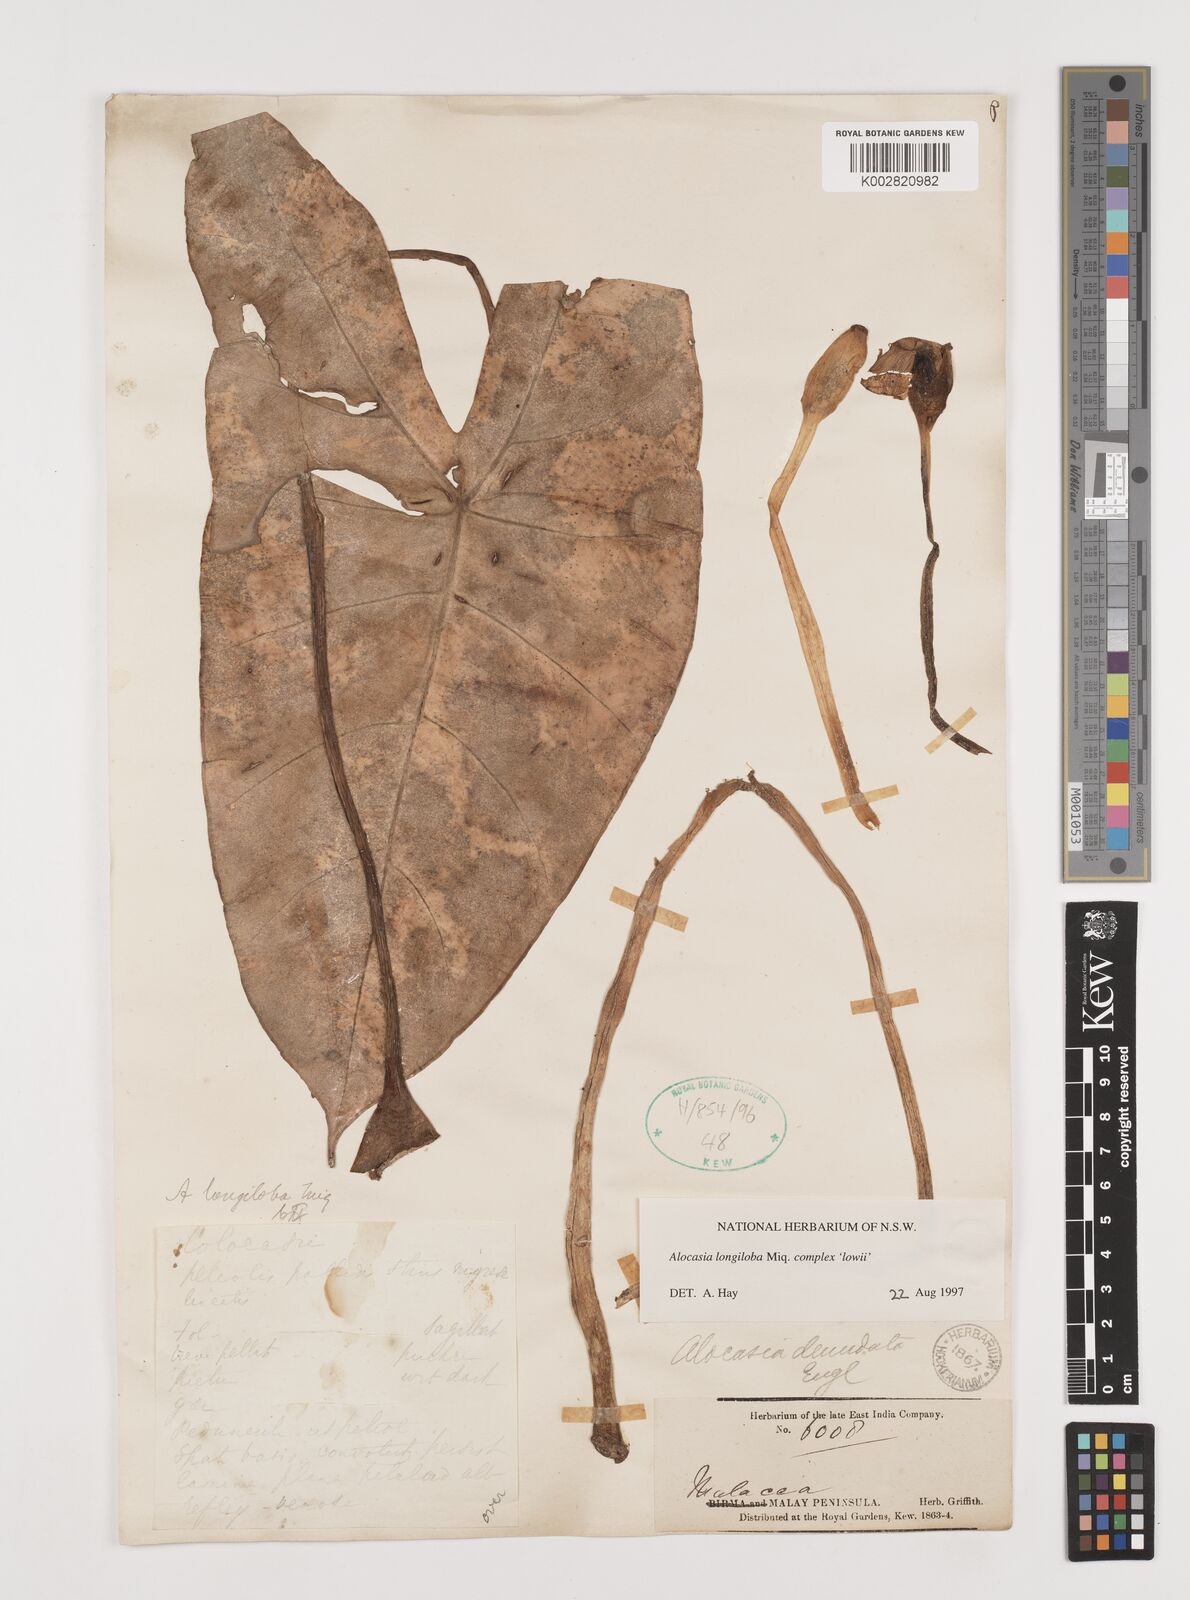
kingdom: Plantae
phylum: Tracheophyta
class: Liliopsida
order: Alismatales
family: Araceae
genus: Alocasia
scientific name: Alocasia longiloba
